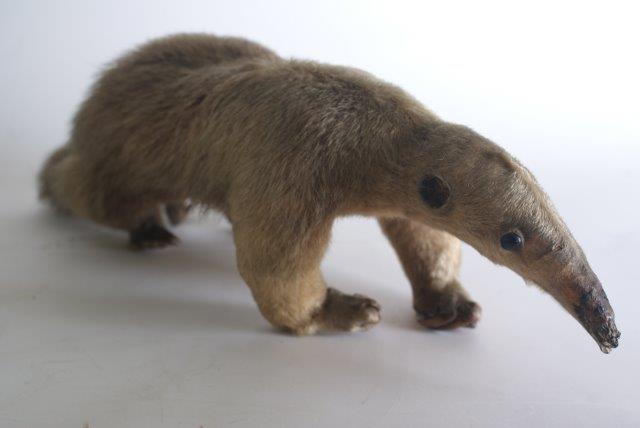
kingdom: Animalia
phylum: Chordata
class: Mammalia
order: Pilosa
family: Myrmecophagidae
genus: Tamandua
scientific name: Tamandua tetradactyla
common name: Southern Tamandua
